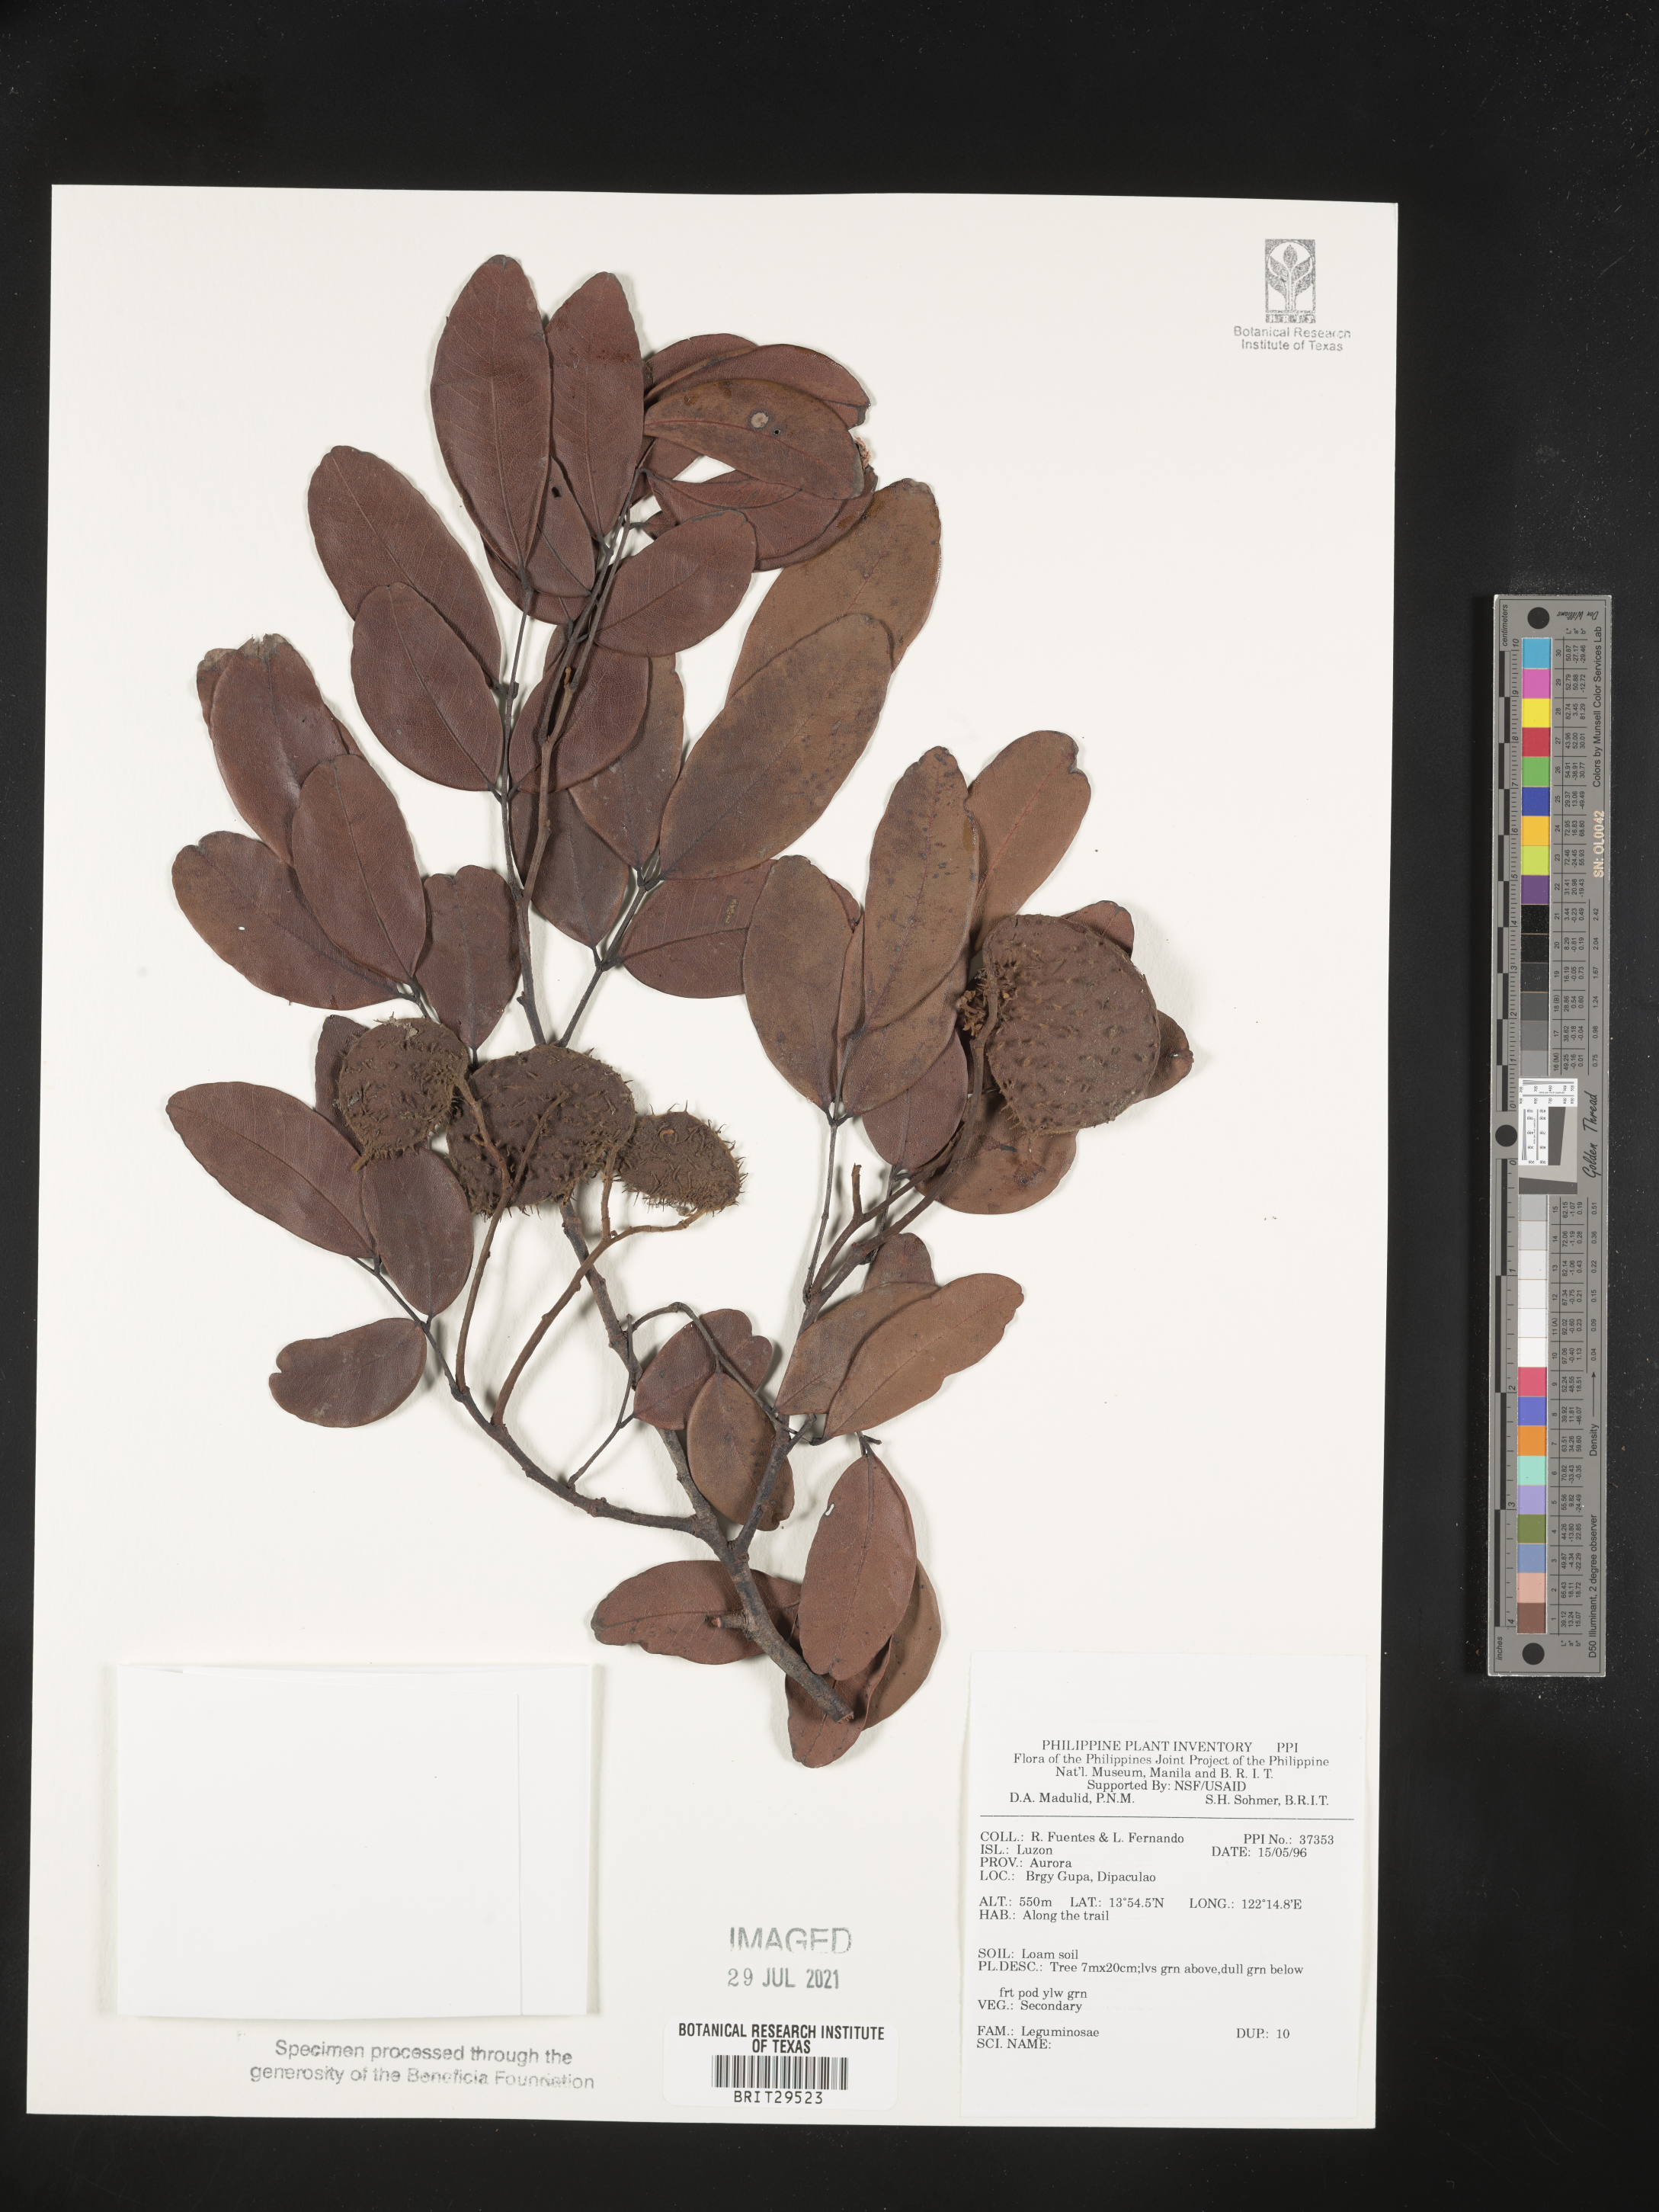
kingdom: Plantae
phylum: Tracheophyta
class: Magnoliopsida
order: Fabales
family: Fabaceae
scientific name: Fabaceae
